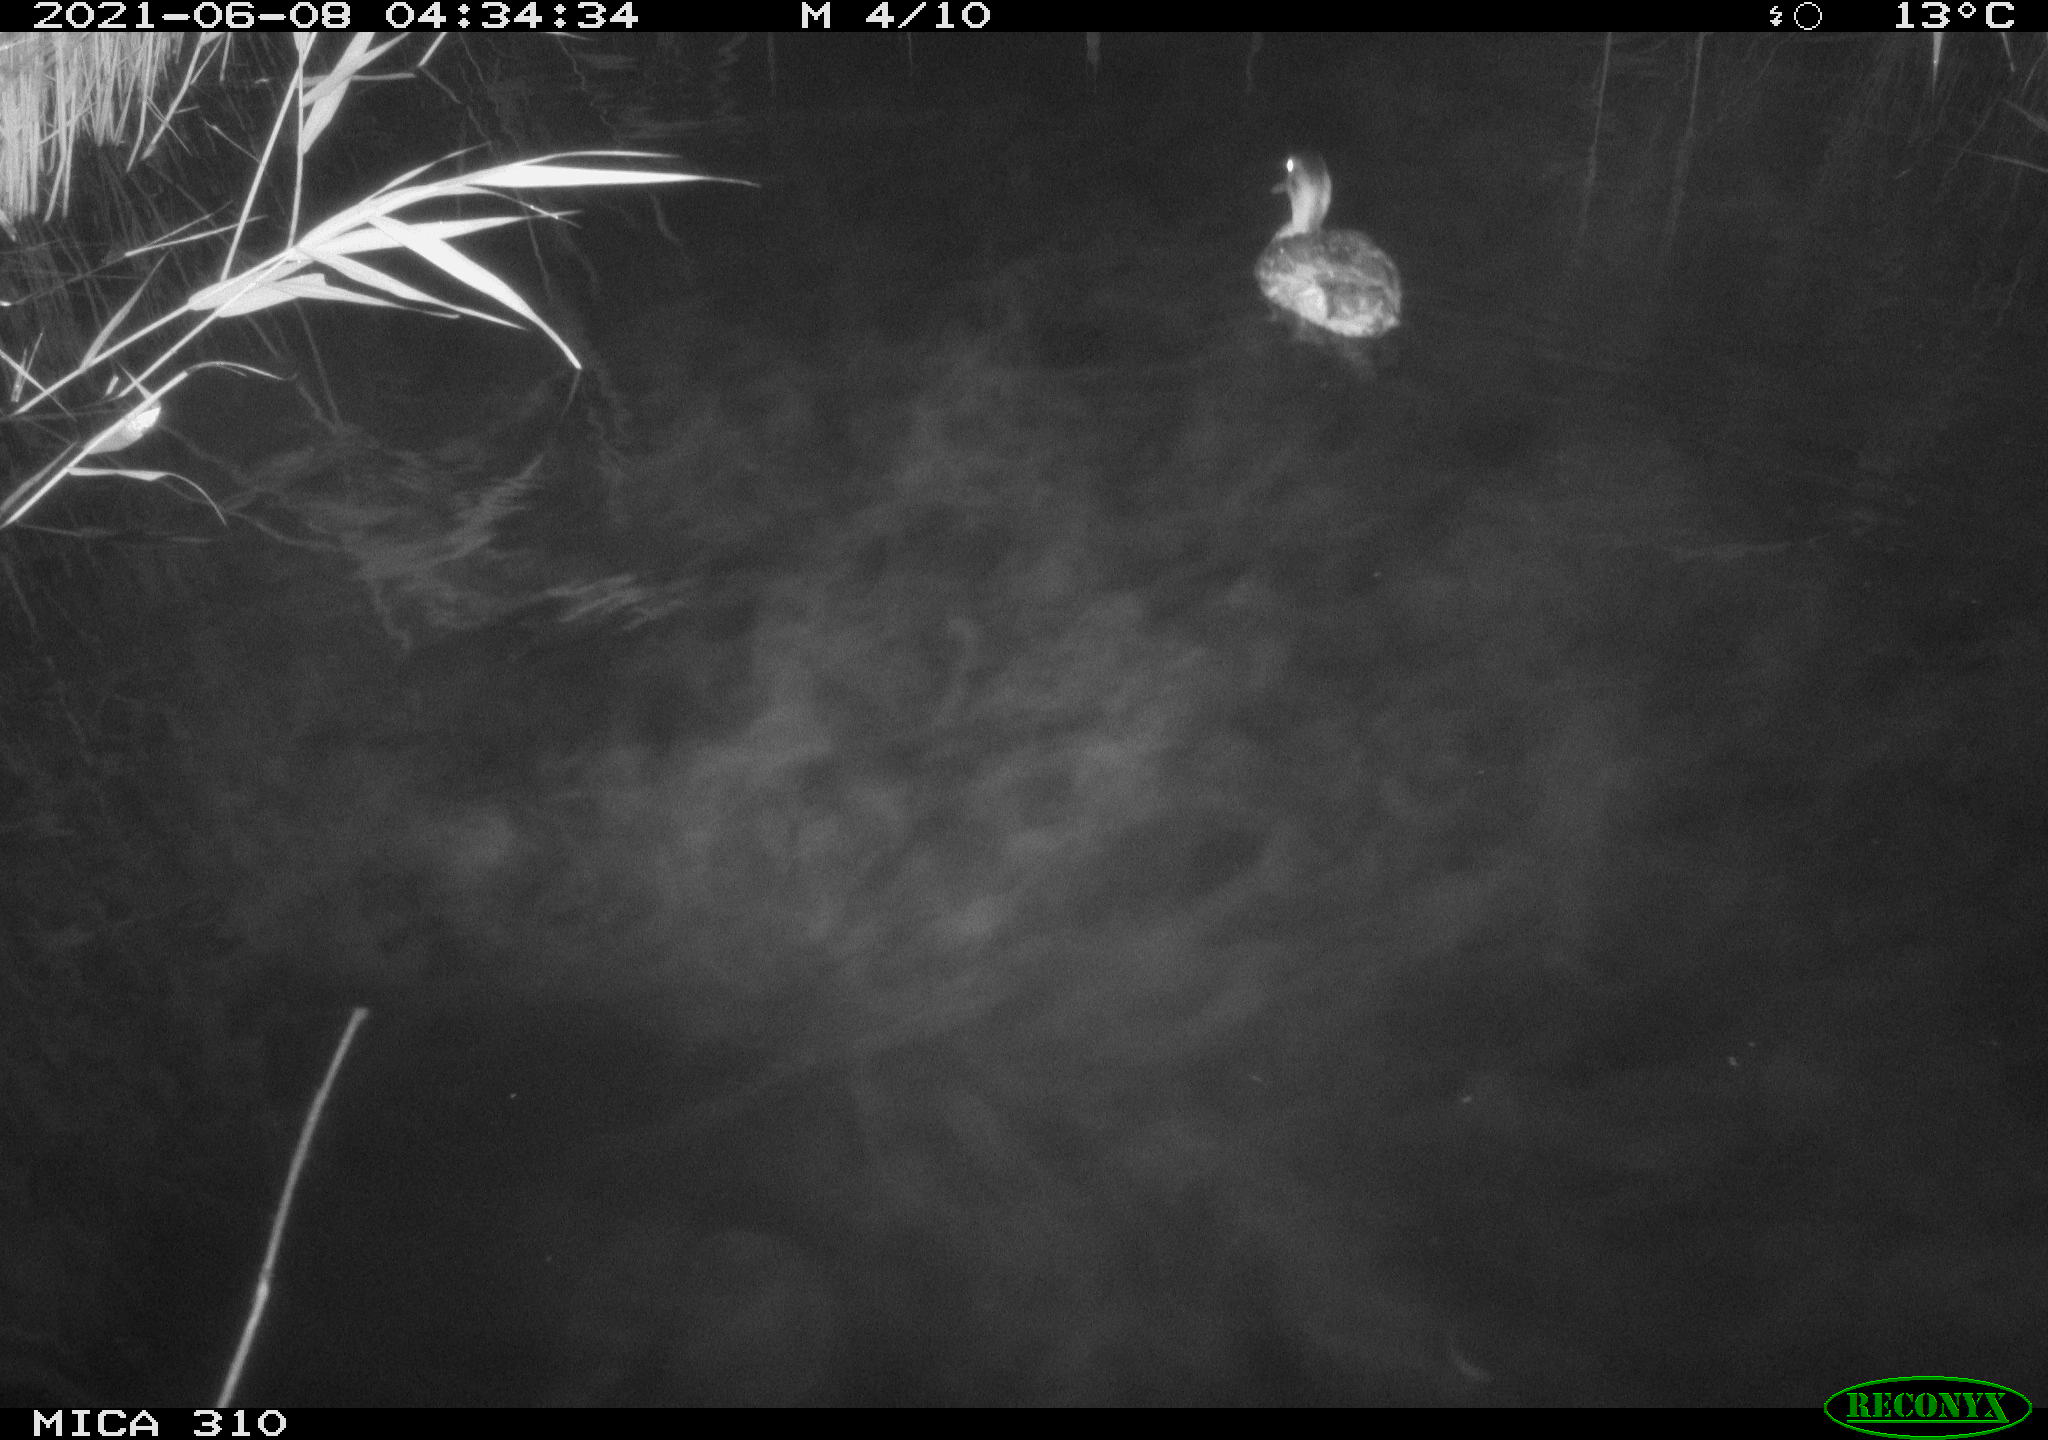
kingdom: Animalia
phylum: Chordata
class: Aves
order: Anseriformes
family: Anatidae
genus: Anas
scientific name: Anas
